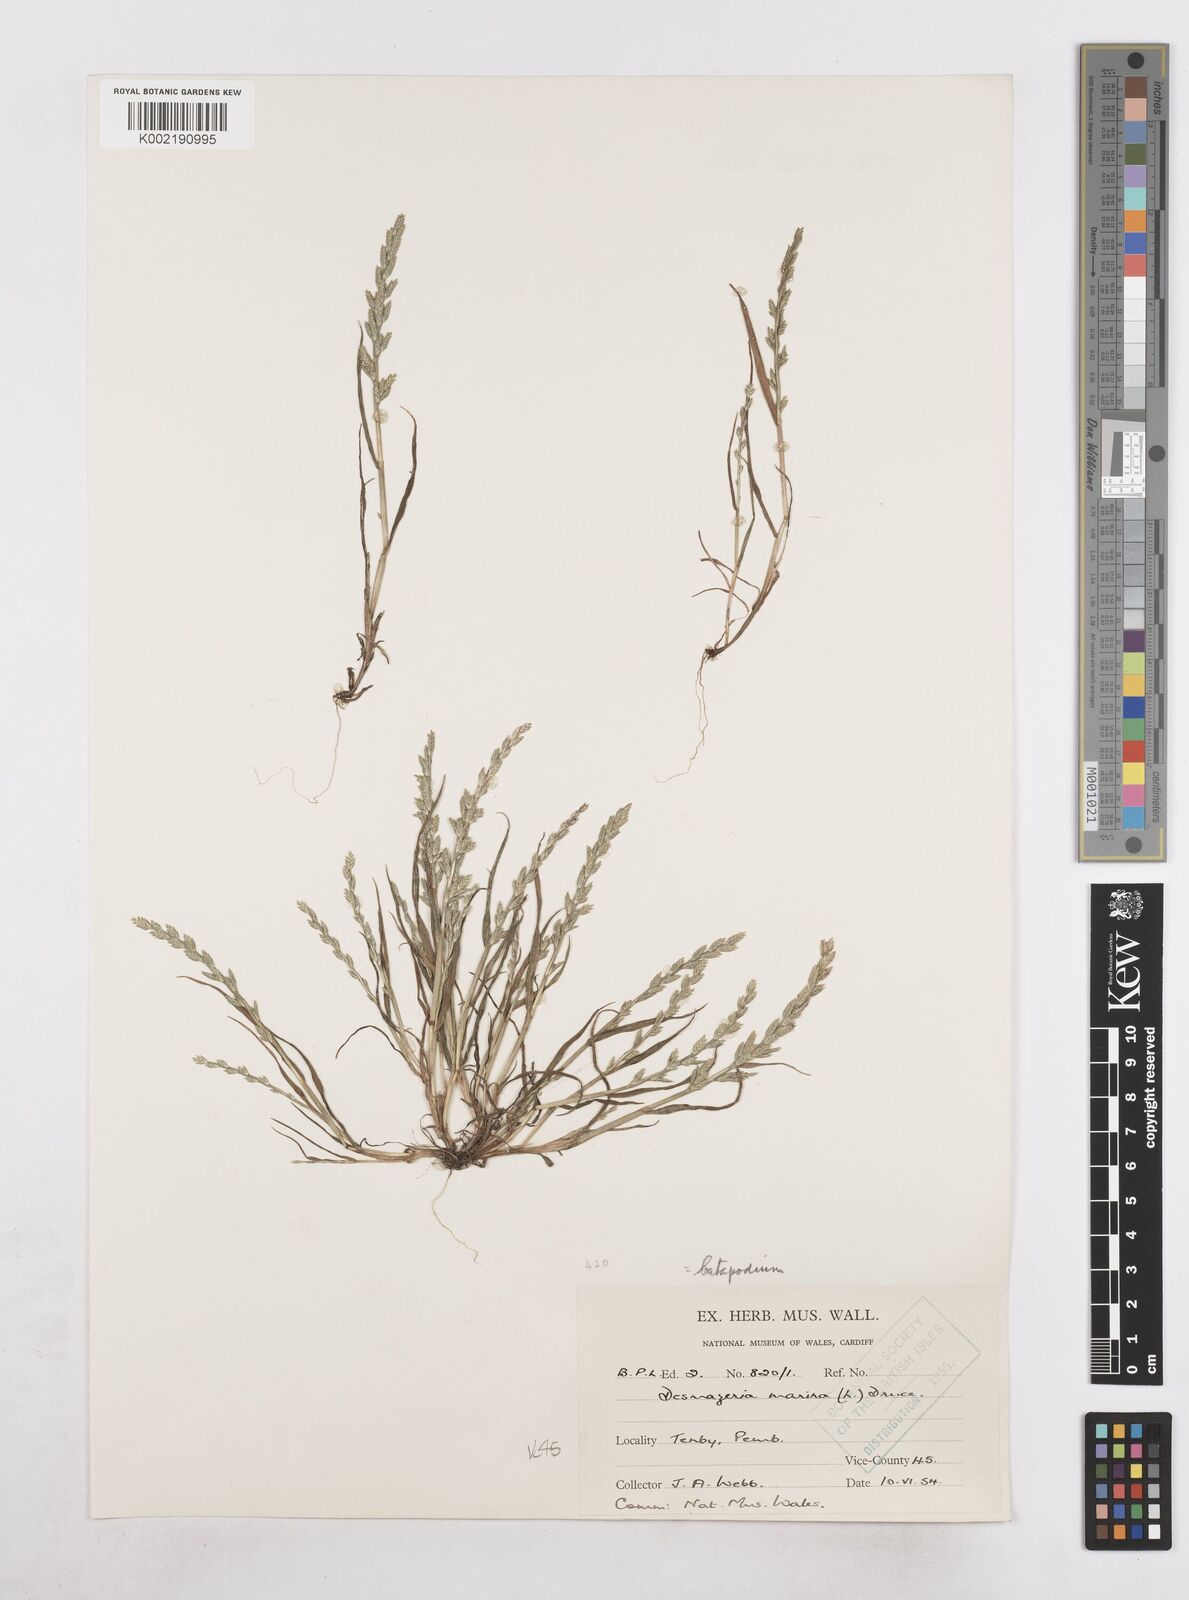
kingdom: Plantae
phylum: Tracheophyta
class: Liliopsida
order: Poales
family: Poaceae
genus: Catapodium
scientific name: Catapodium marinum
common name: Sea fern-grass
